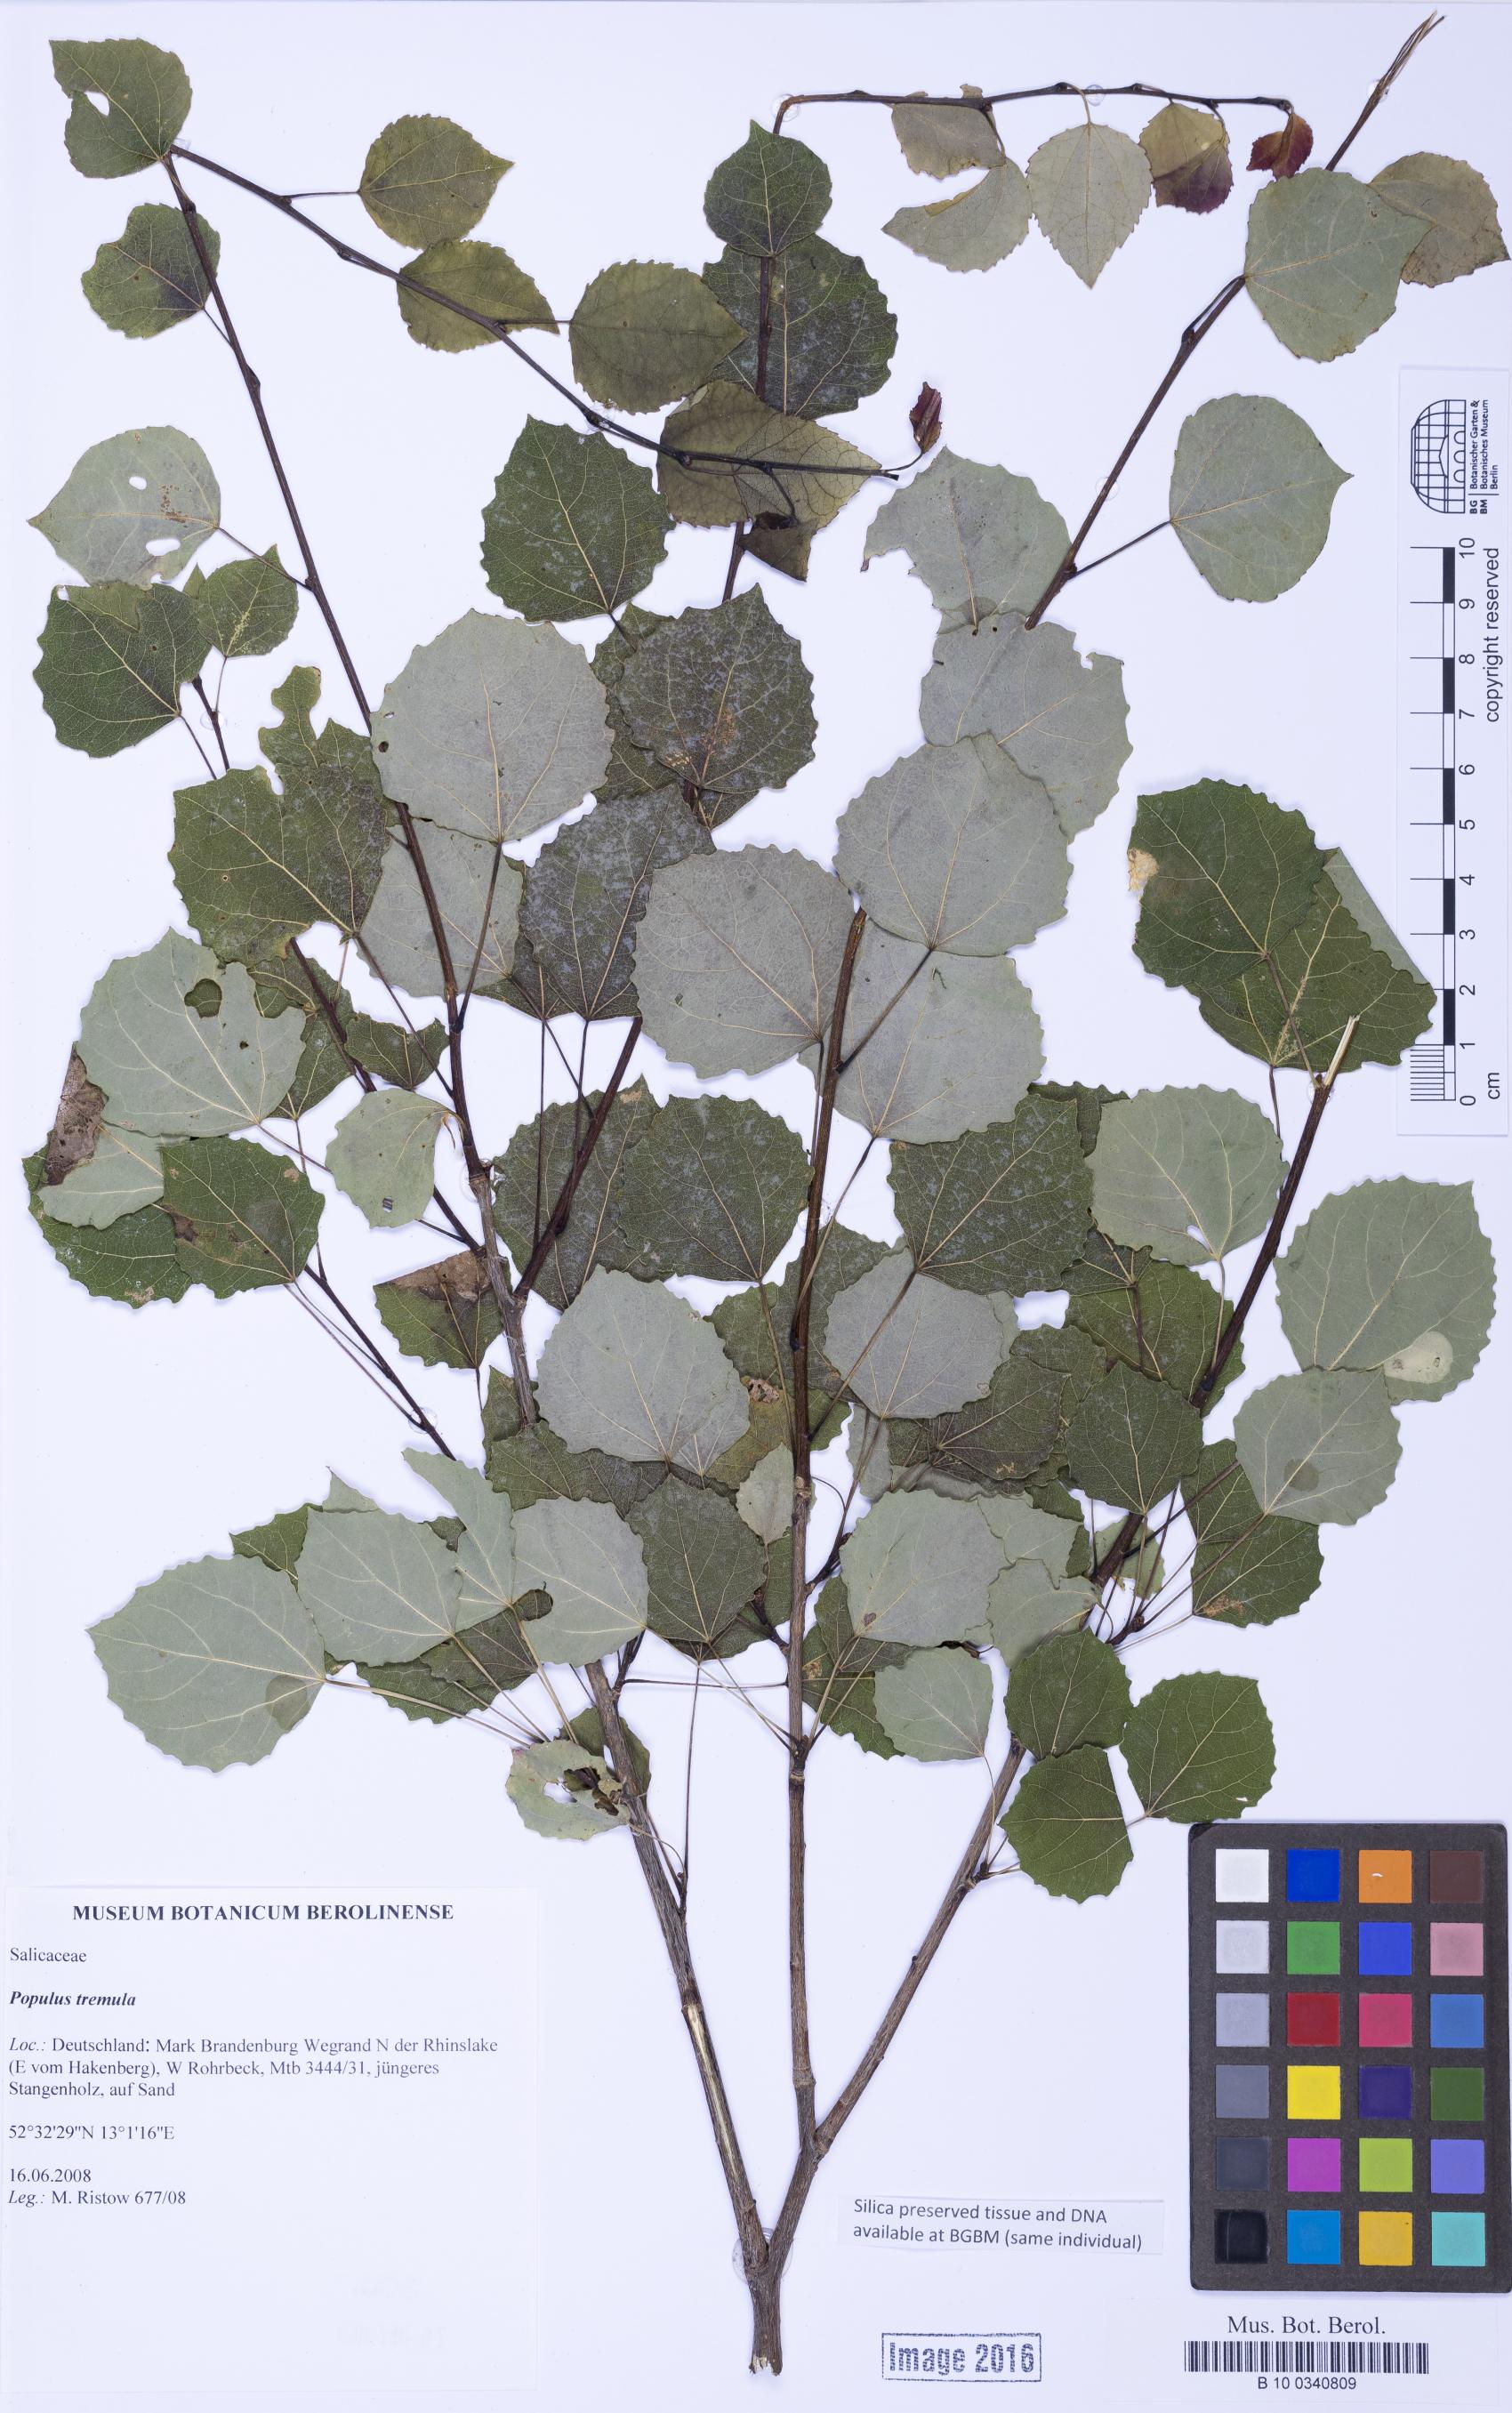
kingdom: Plantae
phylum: Tracheophyta
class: Magnoliopsida
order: Malpighiales
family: Salicaceae
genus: Populus
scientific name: Populus tremula
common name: European aspen
